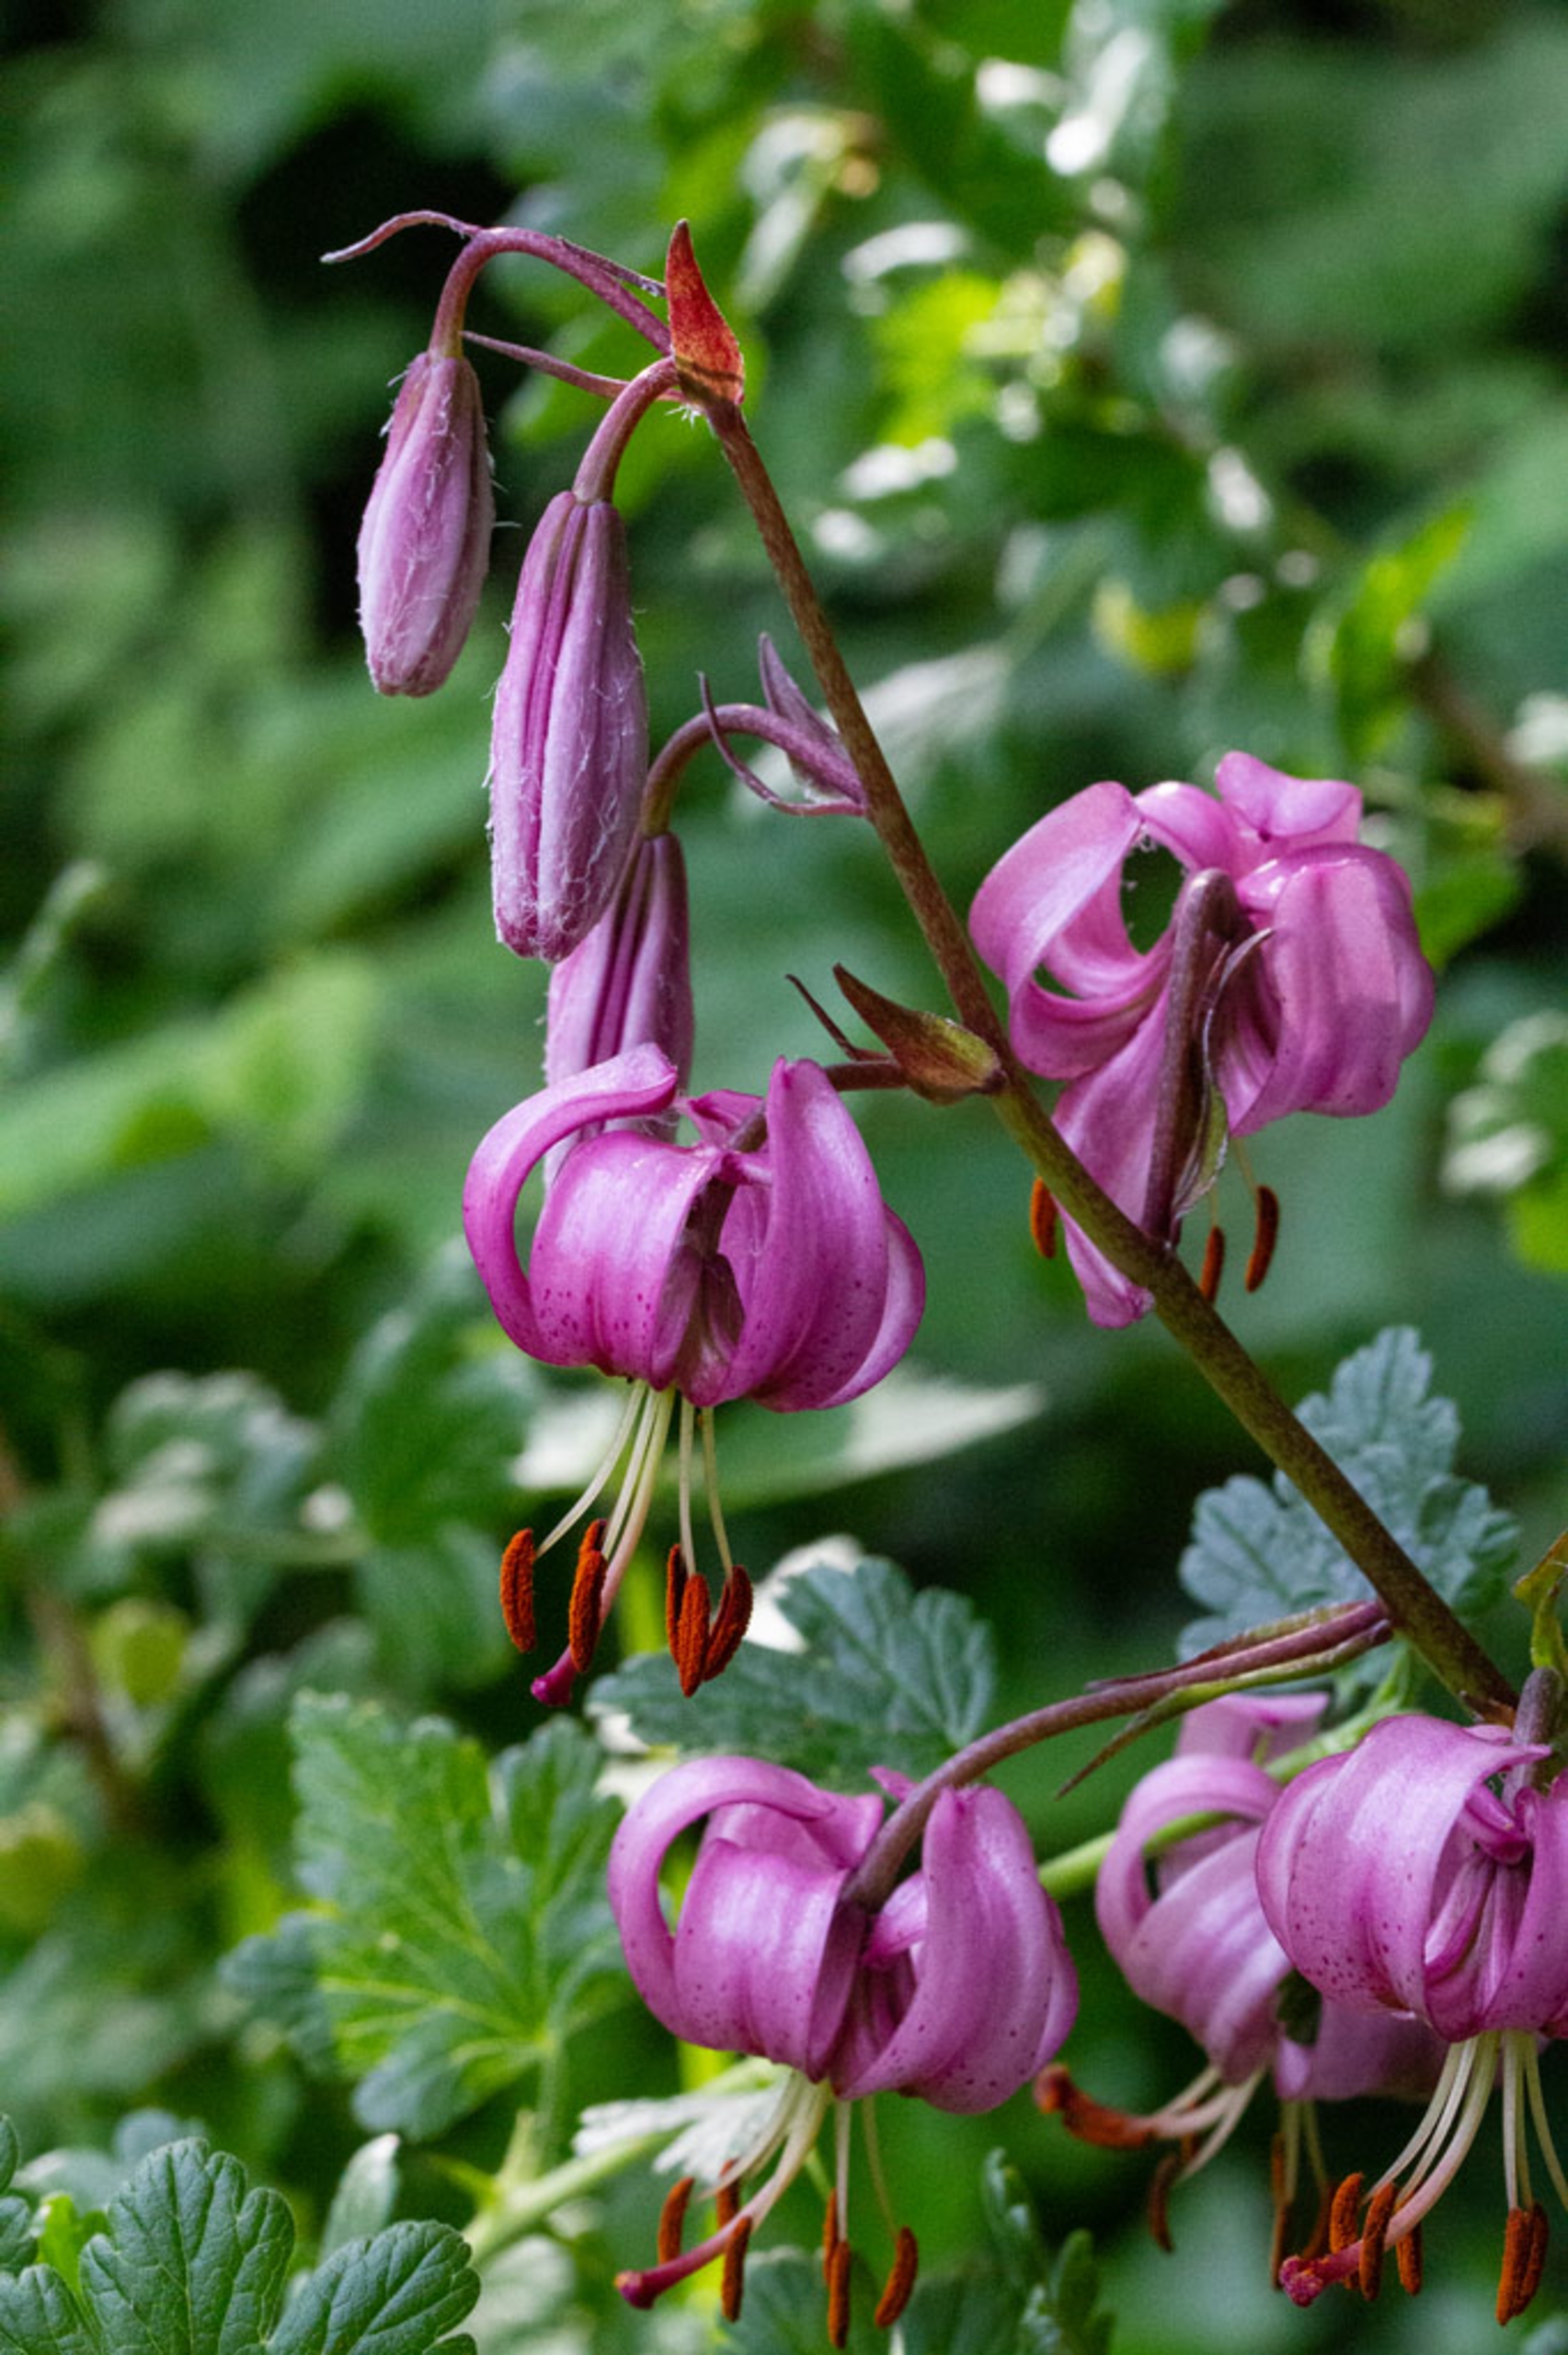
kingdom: Plantae
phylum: Tracheophyta
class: Liliopsida
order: Liliales
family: Liliaceae
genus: Lilium
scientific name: Lilium martagon
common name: Krans-lilje
